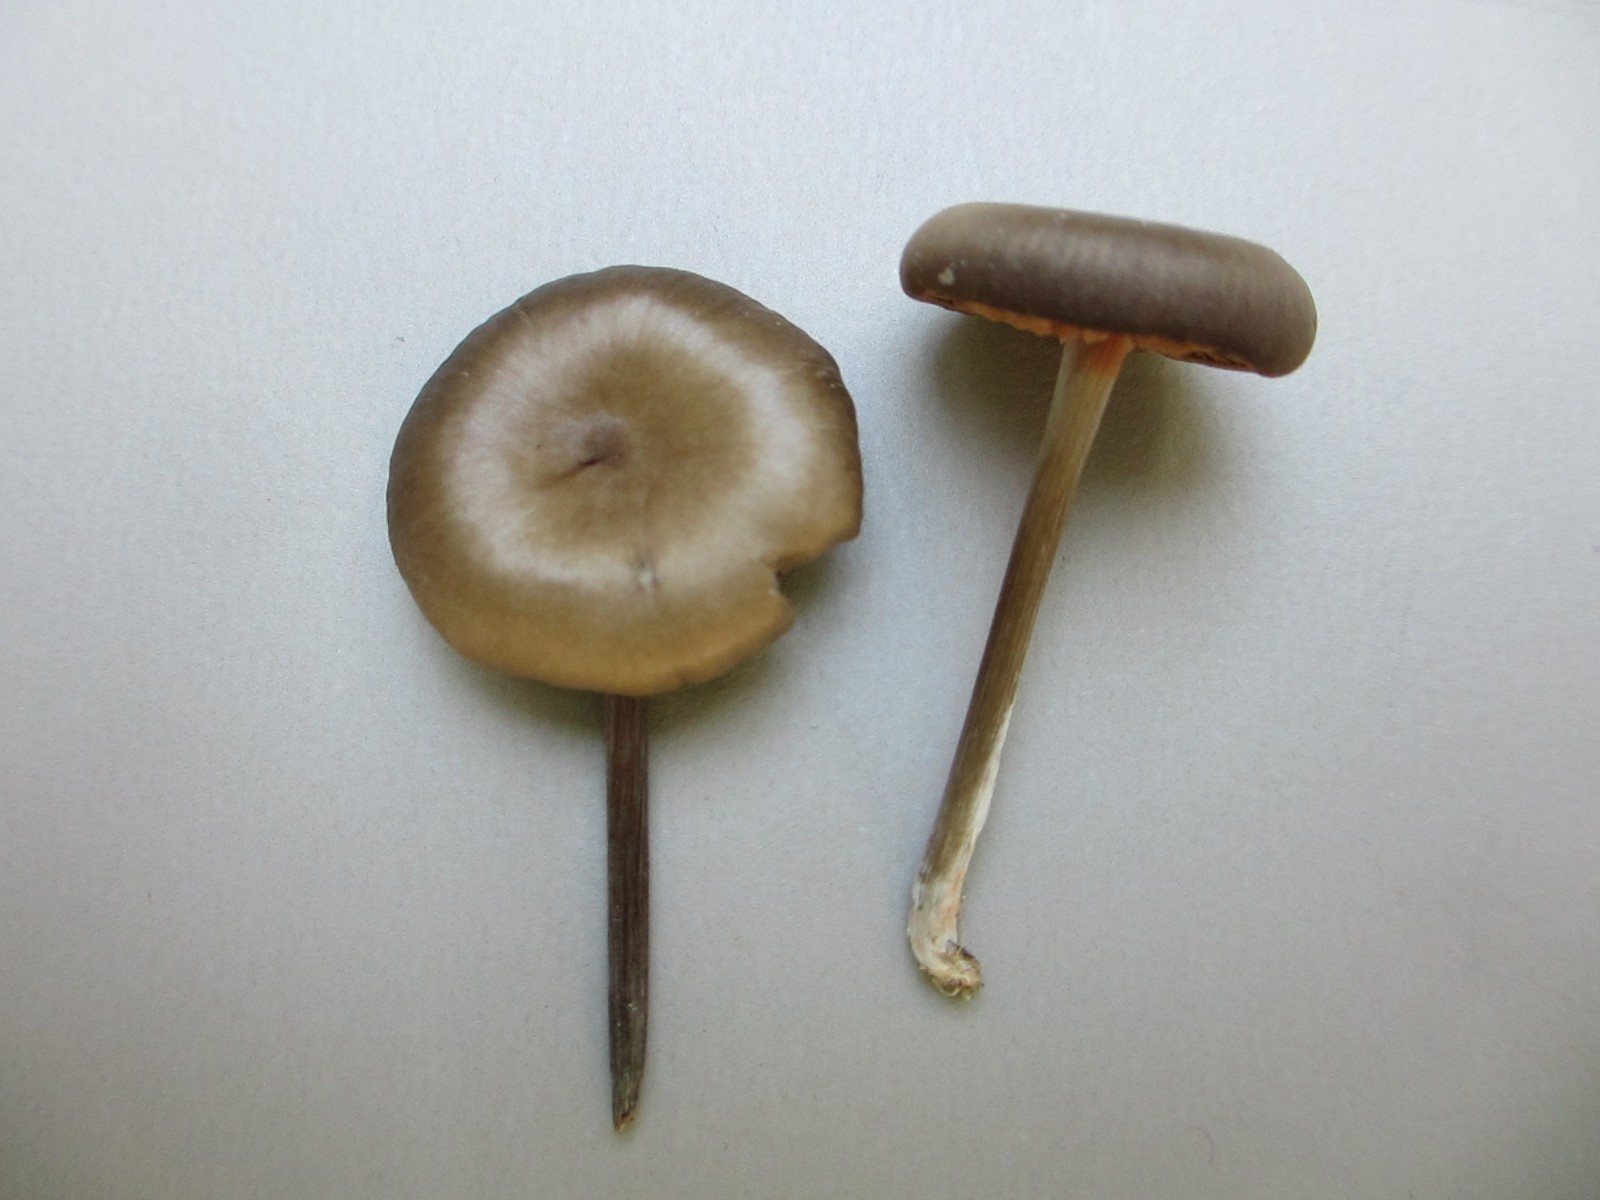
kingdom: Fungi
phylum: Basidiomycota
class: Agaricomycetes
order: Agaricales
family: Entolomataceae
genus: Entoloma
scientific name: Entoloma
